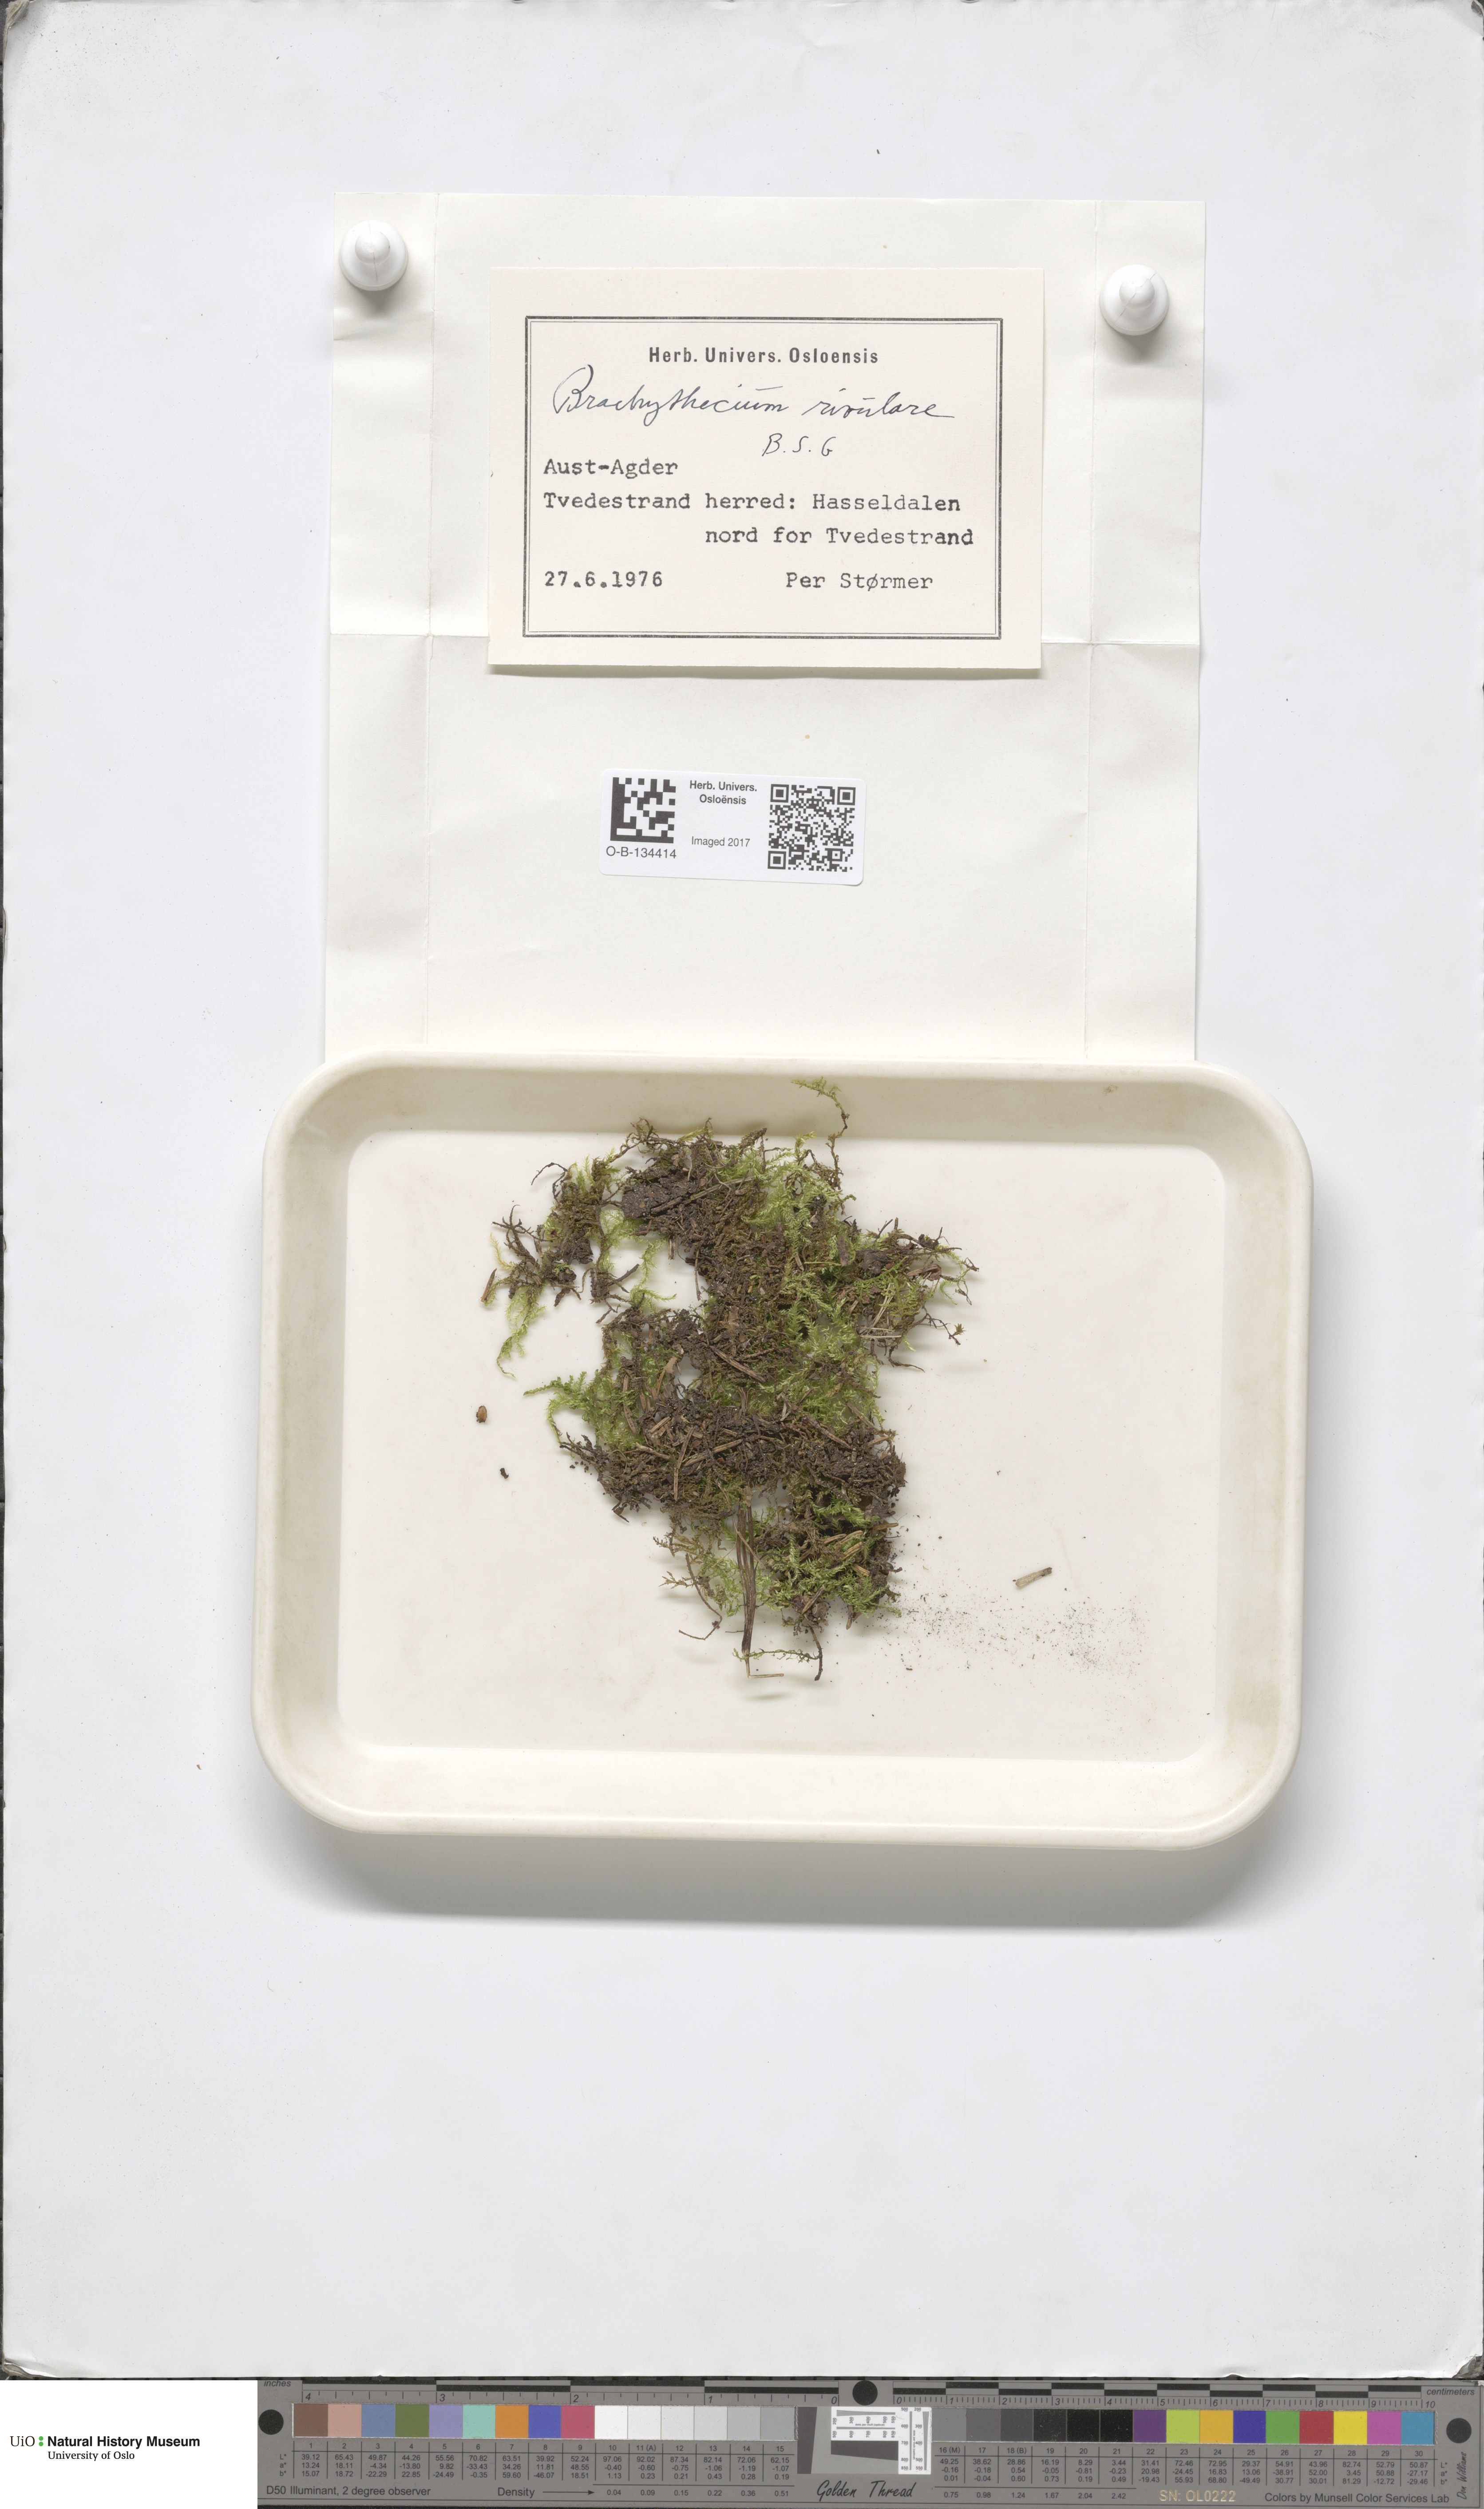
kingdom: Plantae
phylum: Bryophyta
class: Bryopsida
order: Hypnales
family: Brachytheciaceae
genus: Brachythecium
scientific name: Brachythecium rivulare
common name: River ragged moss
